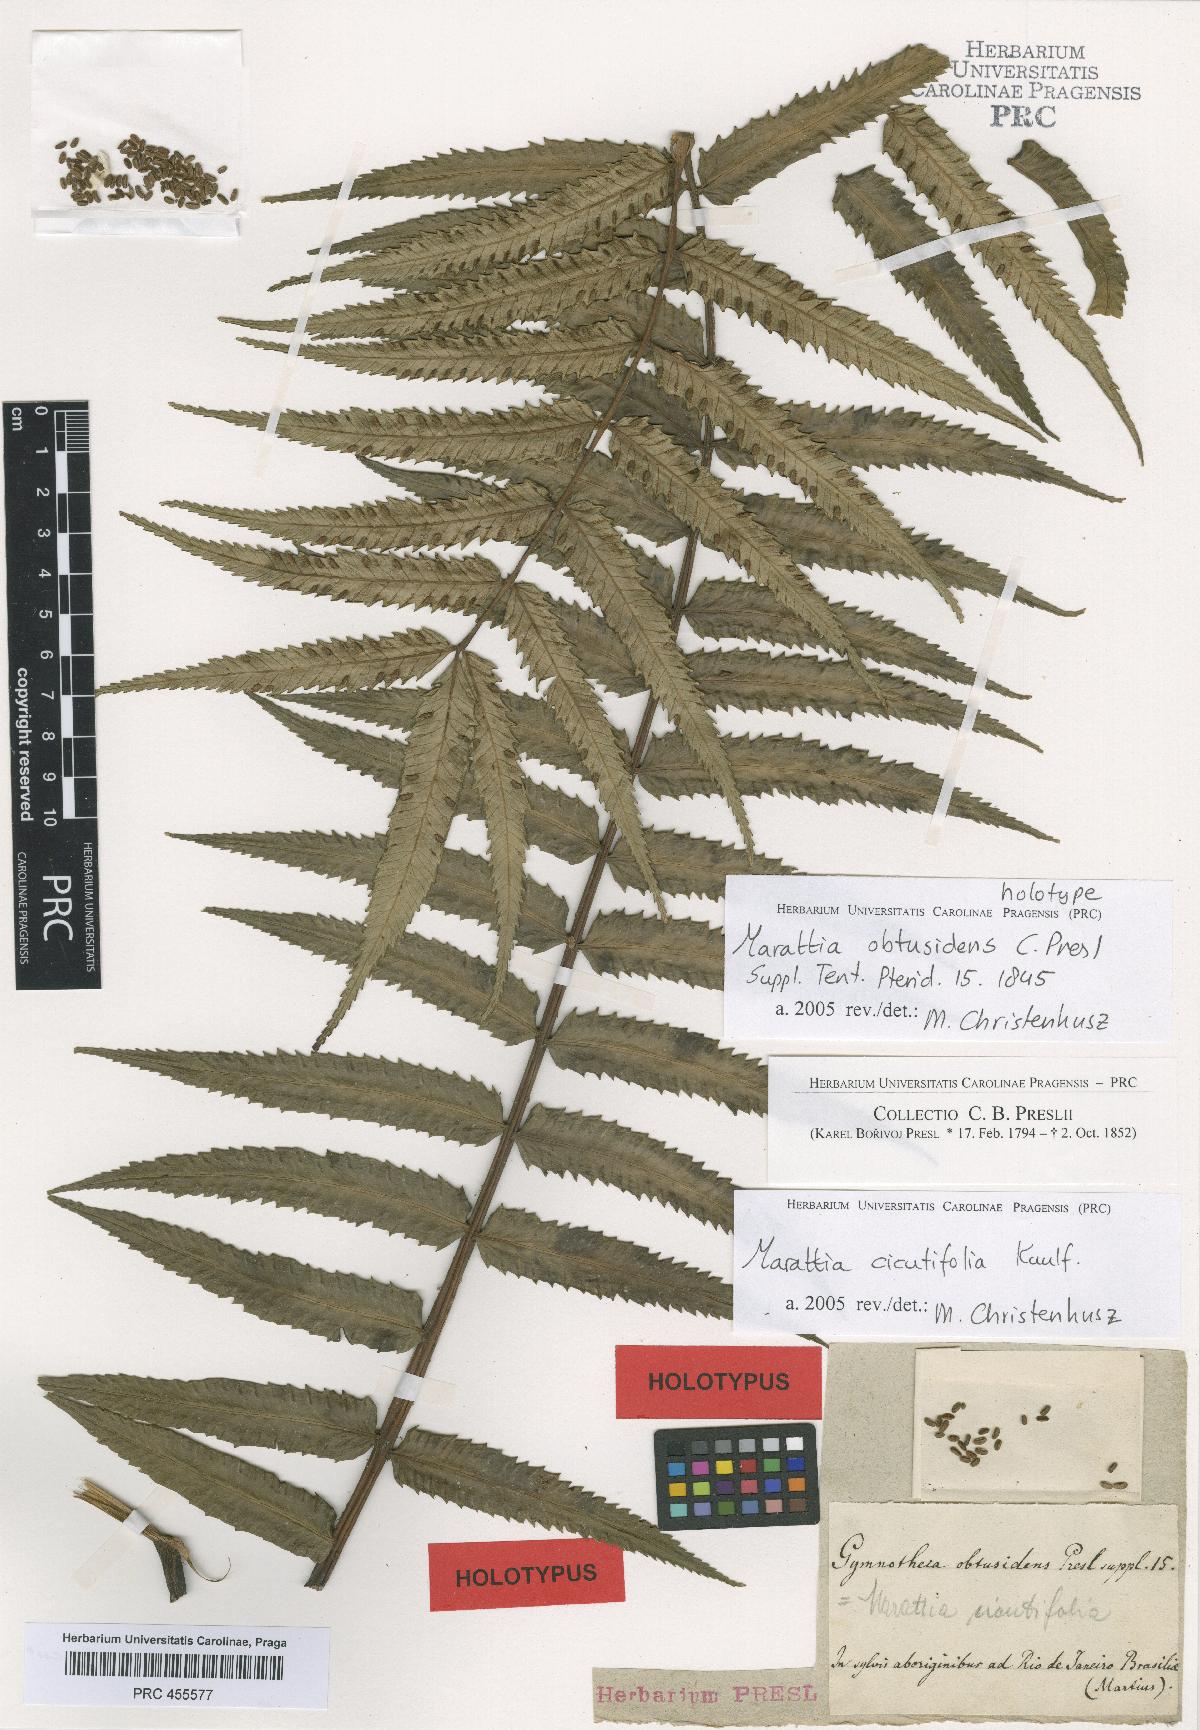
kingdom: Plantae
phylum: Tracheophyta
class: Polypodiopsida
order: Marattiales
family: Marattiaceae
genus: Eupodium
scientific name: Eupodium cicutifolium
